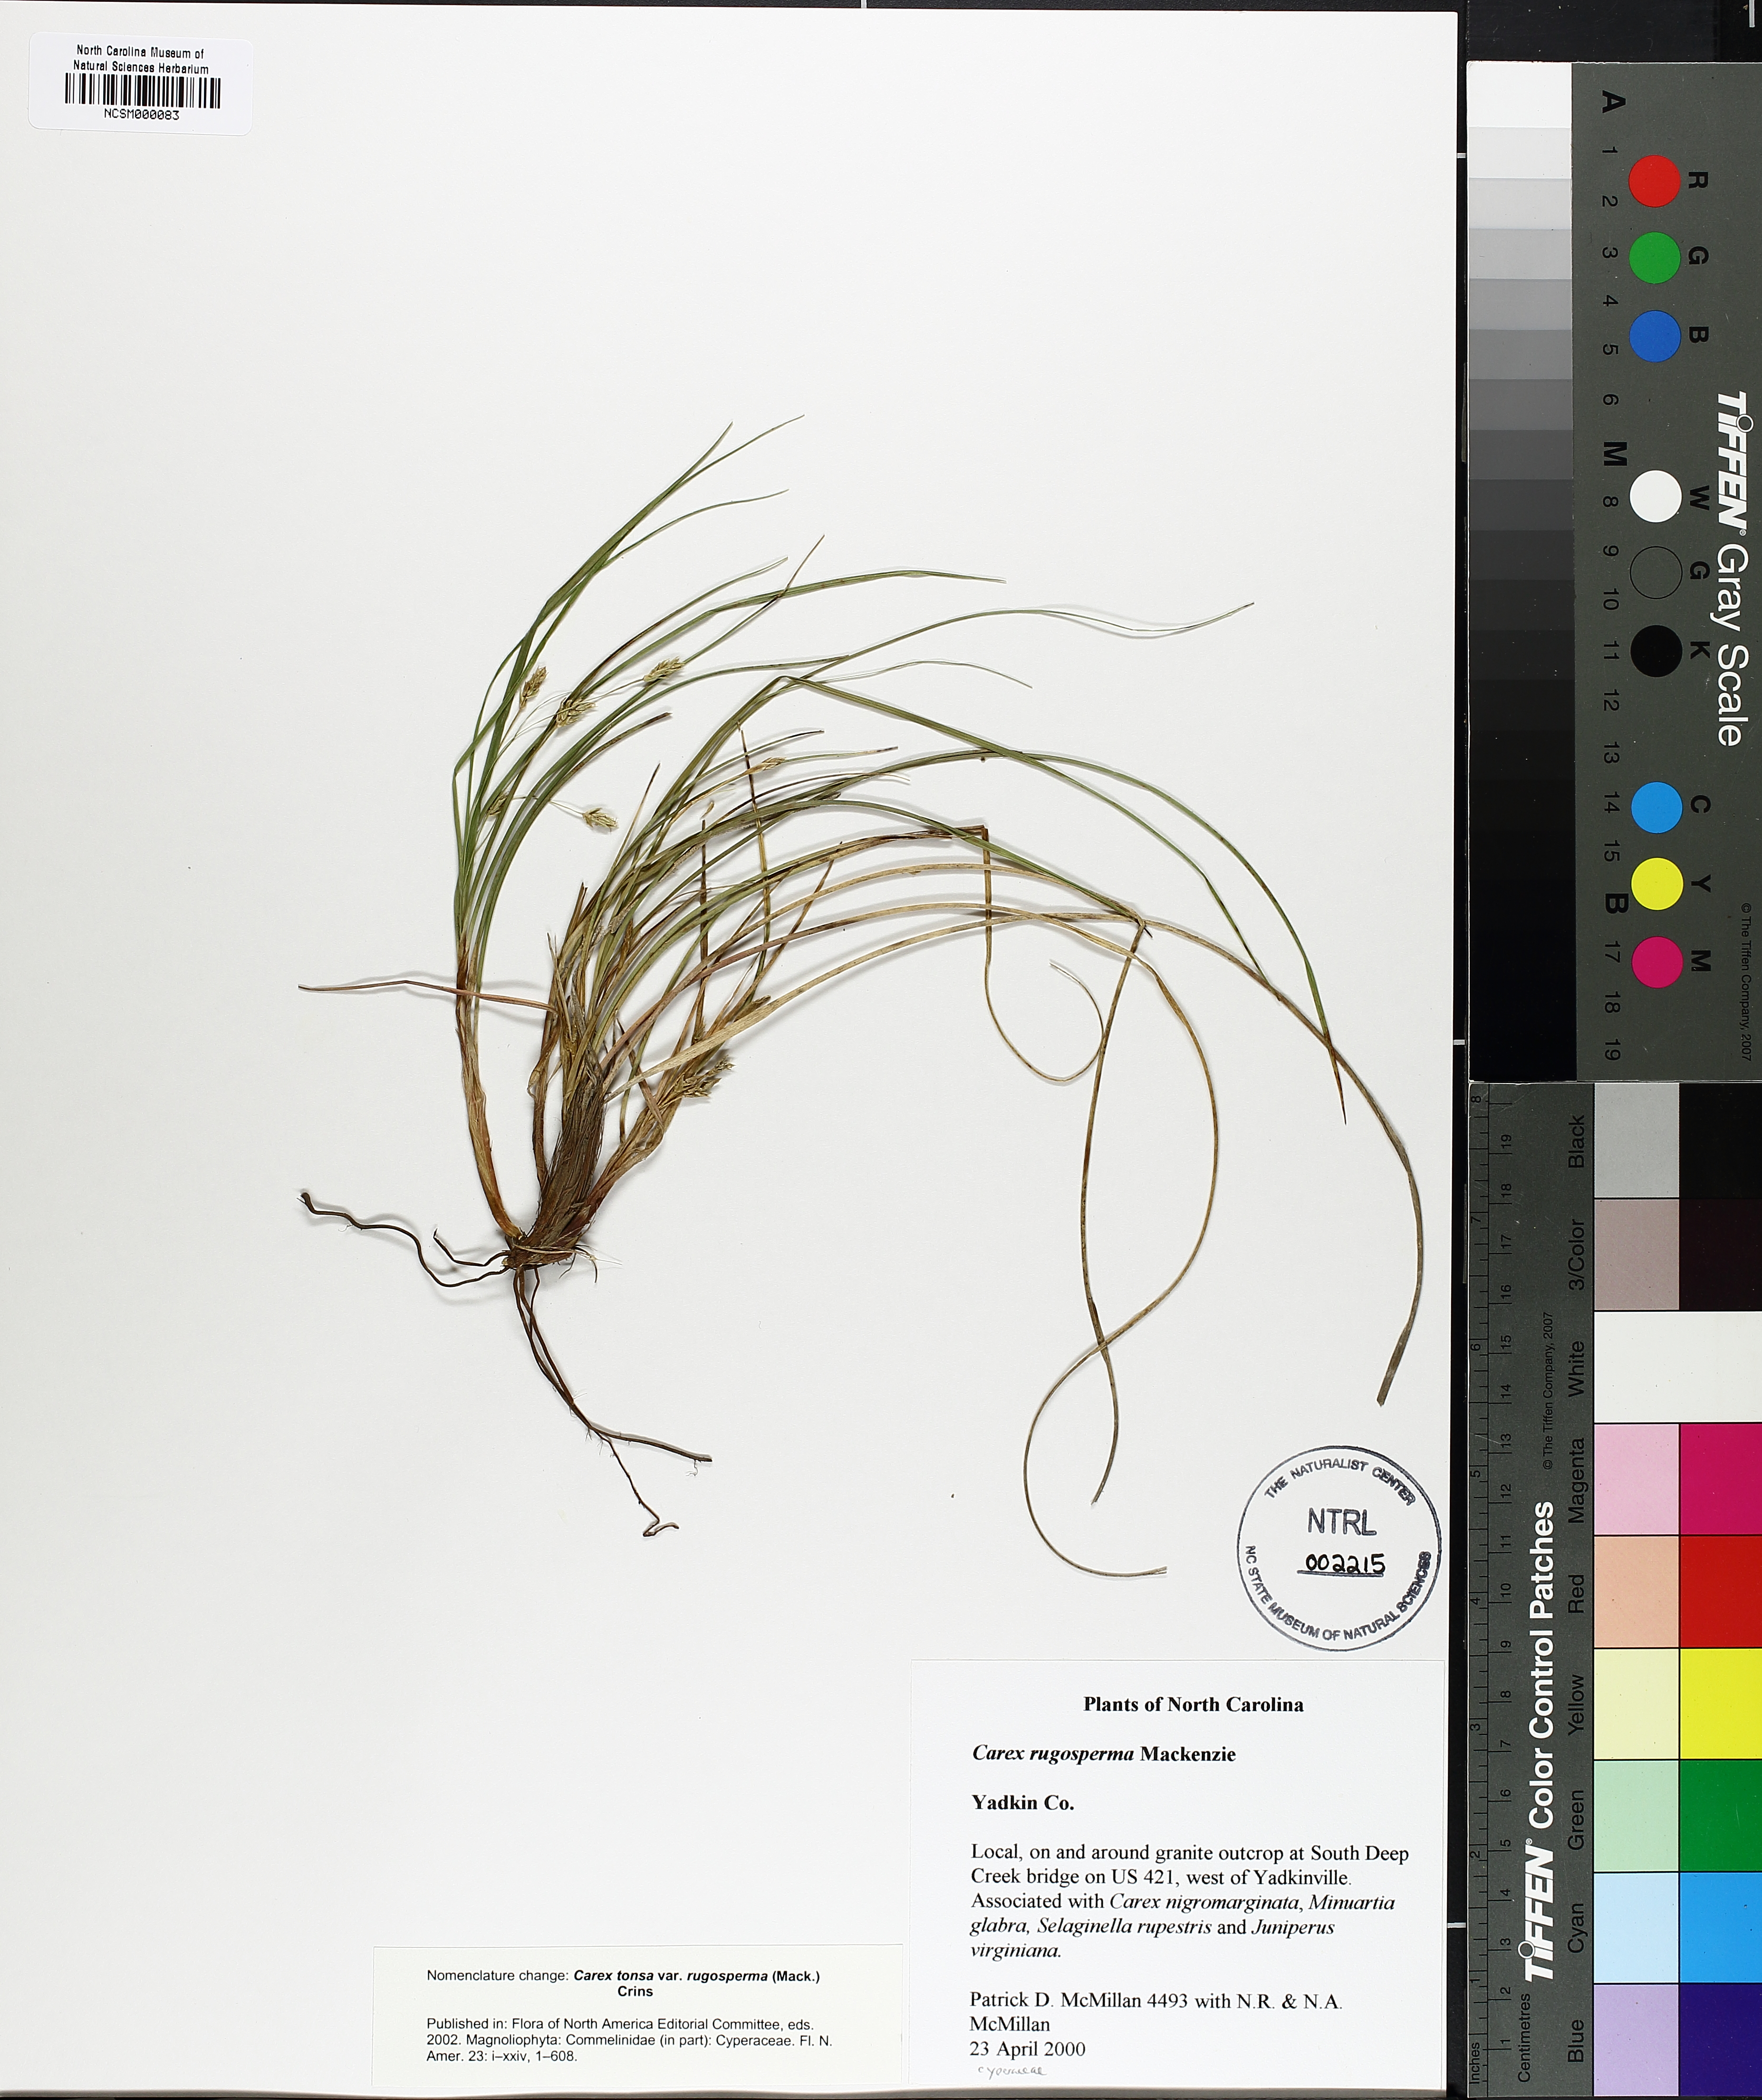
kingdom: Plantae
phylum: Tracheophyta
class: Liliopsida
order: Poales
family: Cyperaceae
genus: Carex
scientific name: Carex tonsa
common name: Bald sedge
